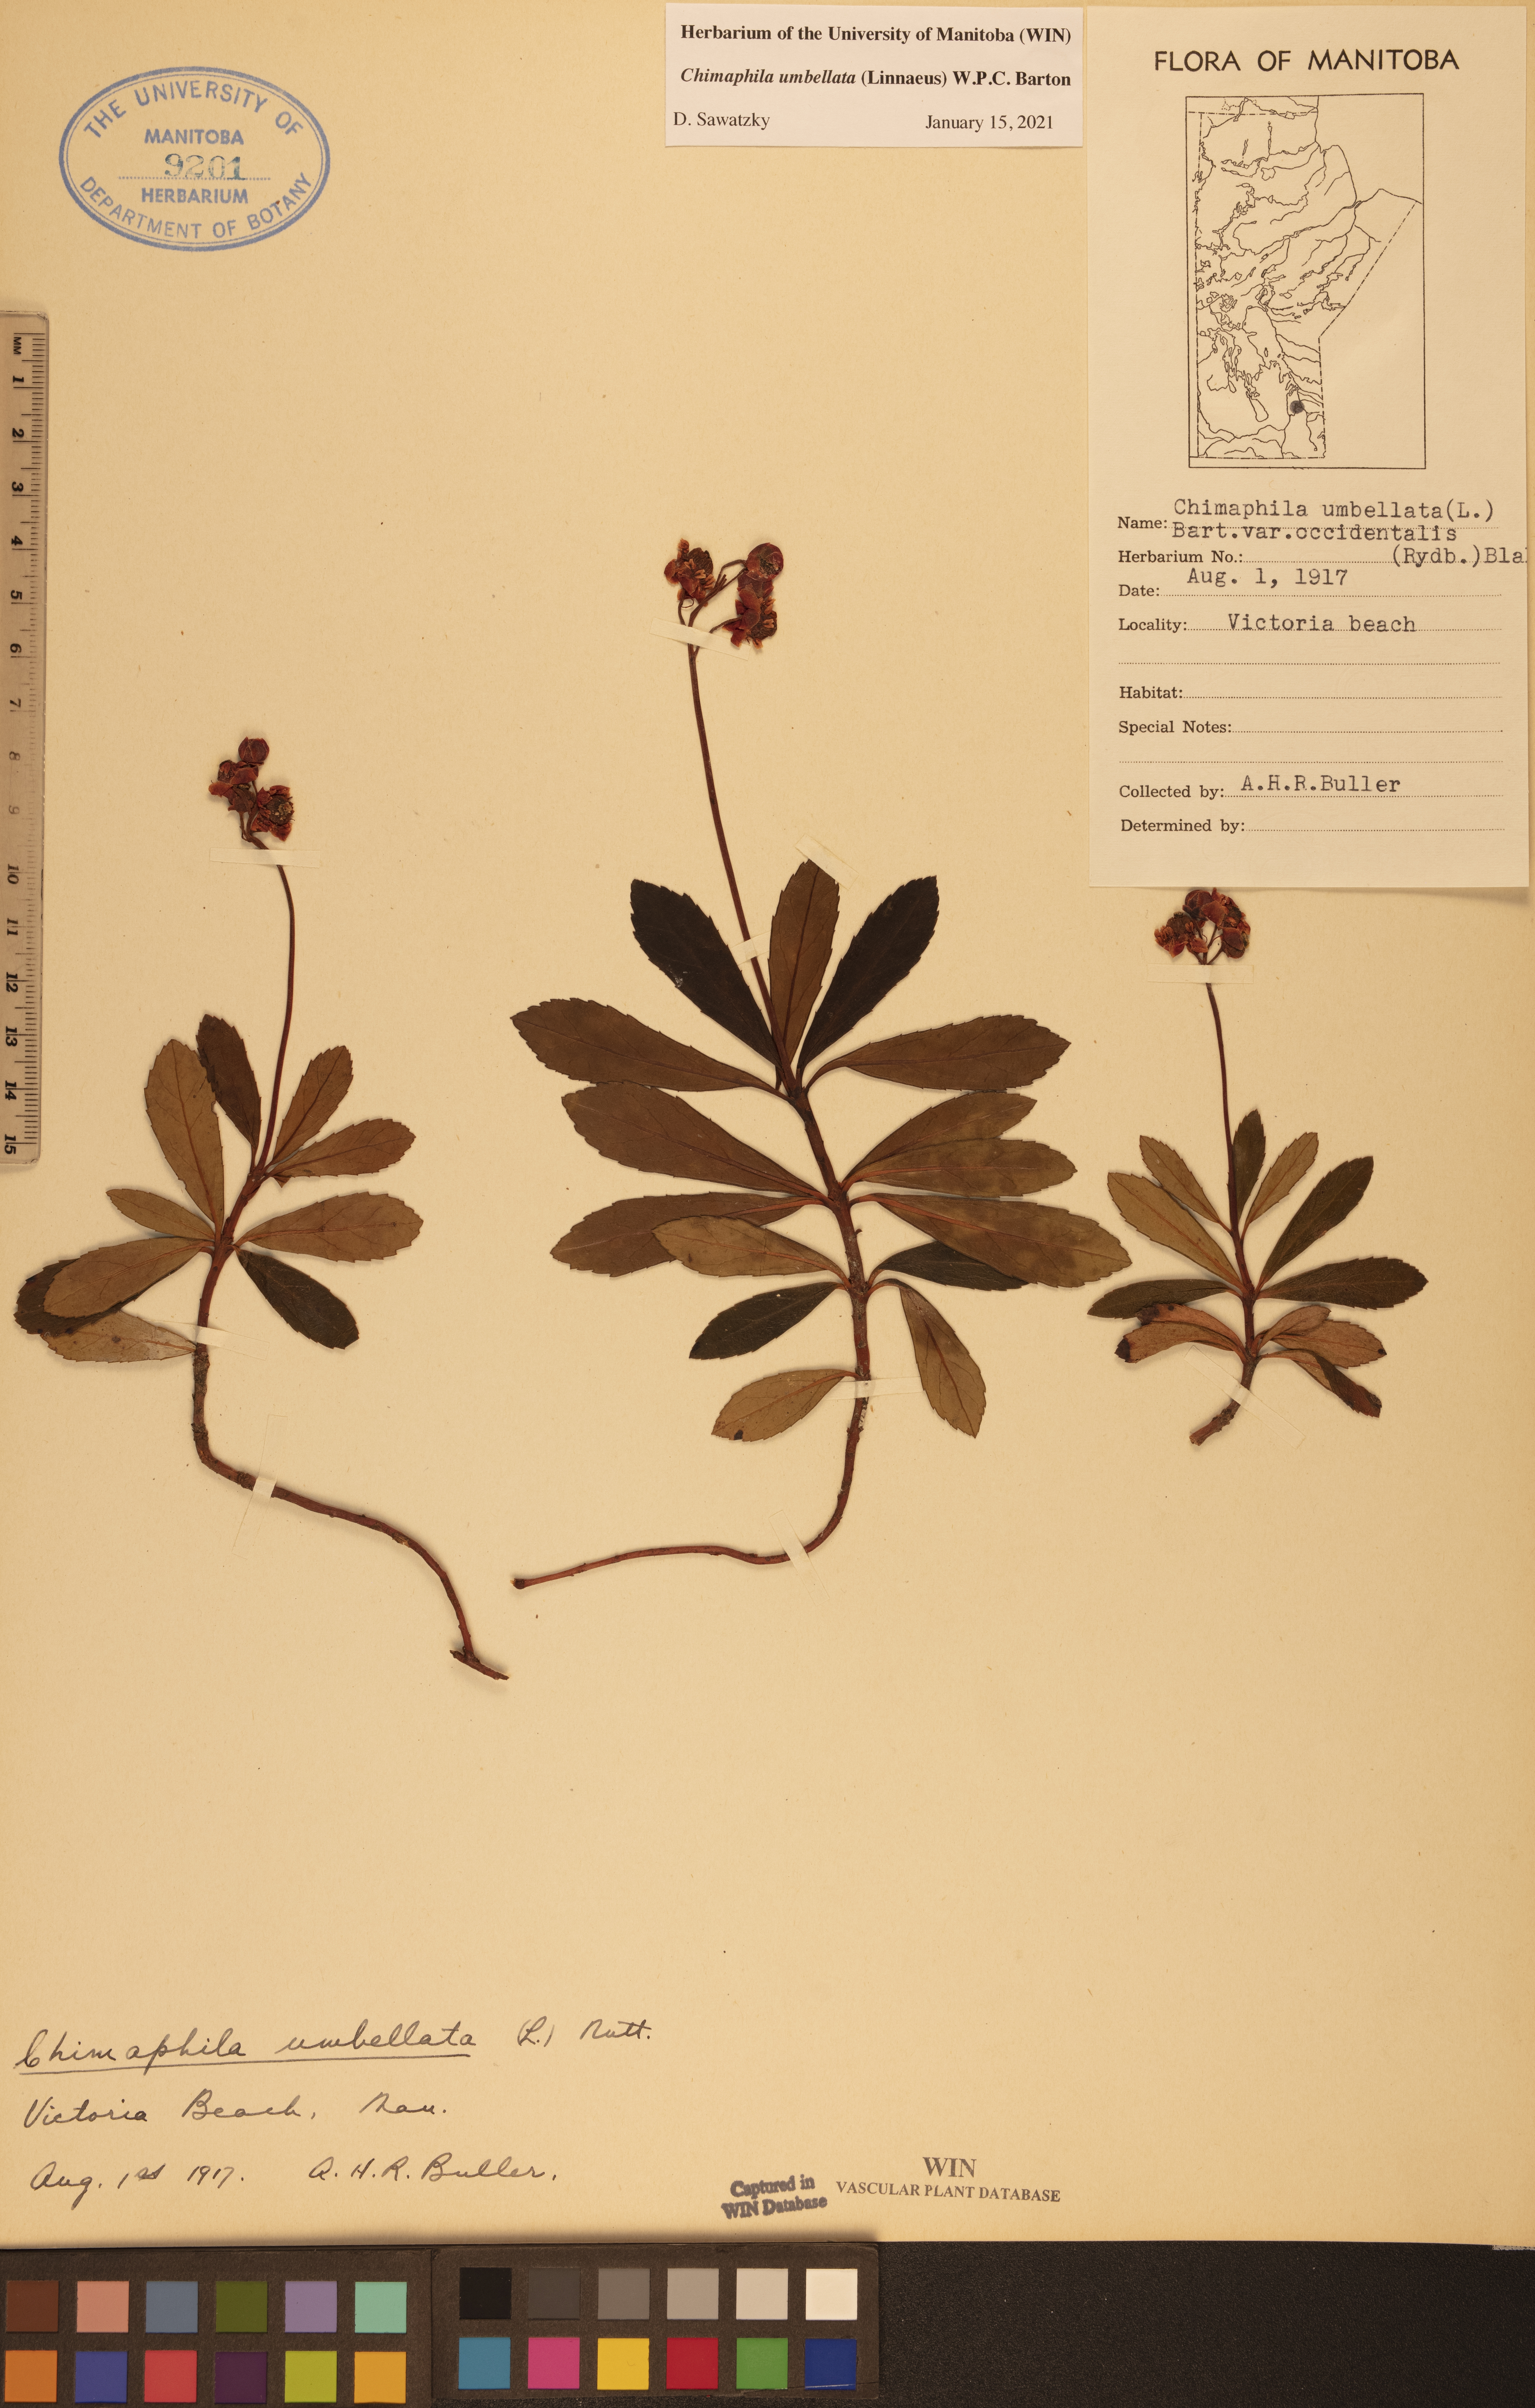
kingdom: Plantae
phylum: Tracheophyta
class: Magnoliopsida
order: Ericales
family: Ericaceae
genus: Chimaphila
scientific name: Chimaphila umbellata
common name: Pipsissewa
